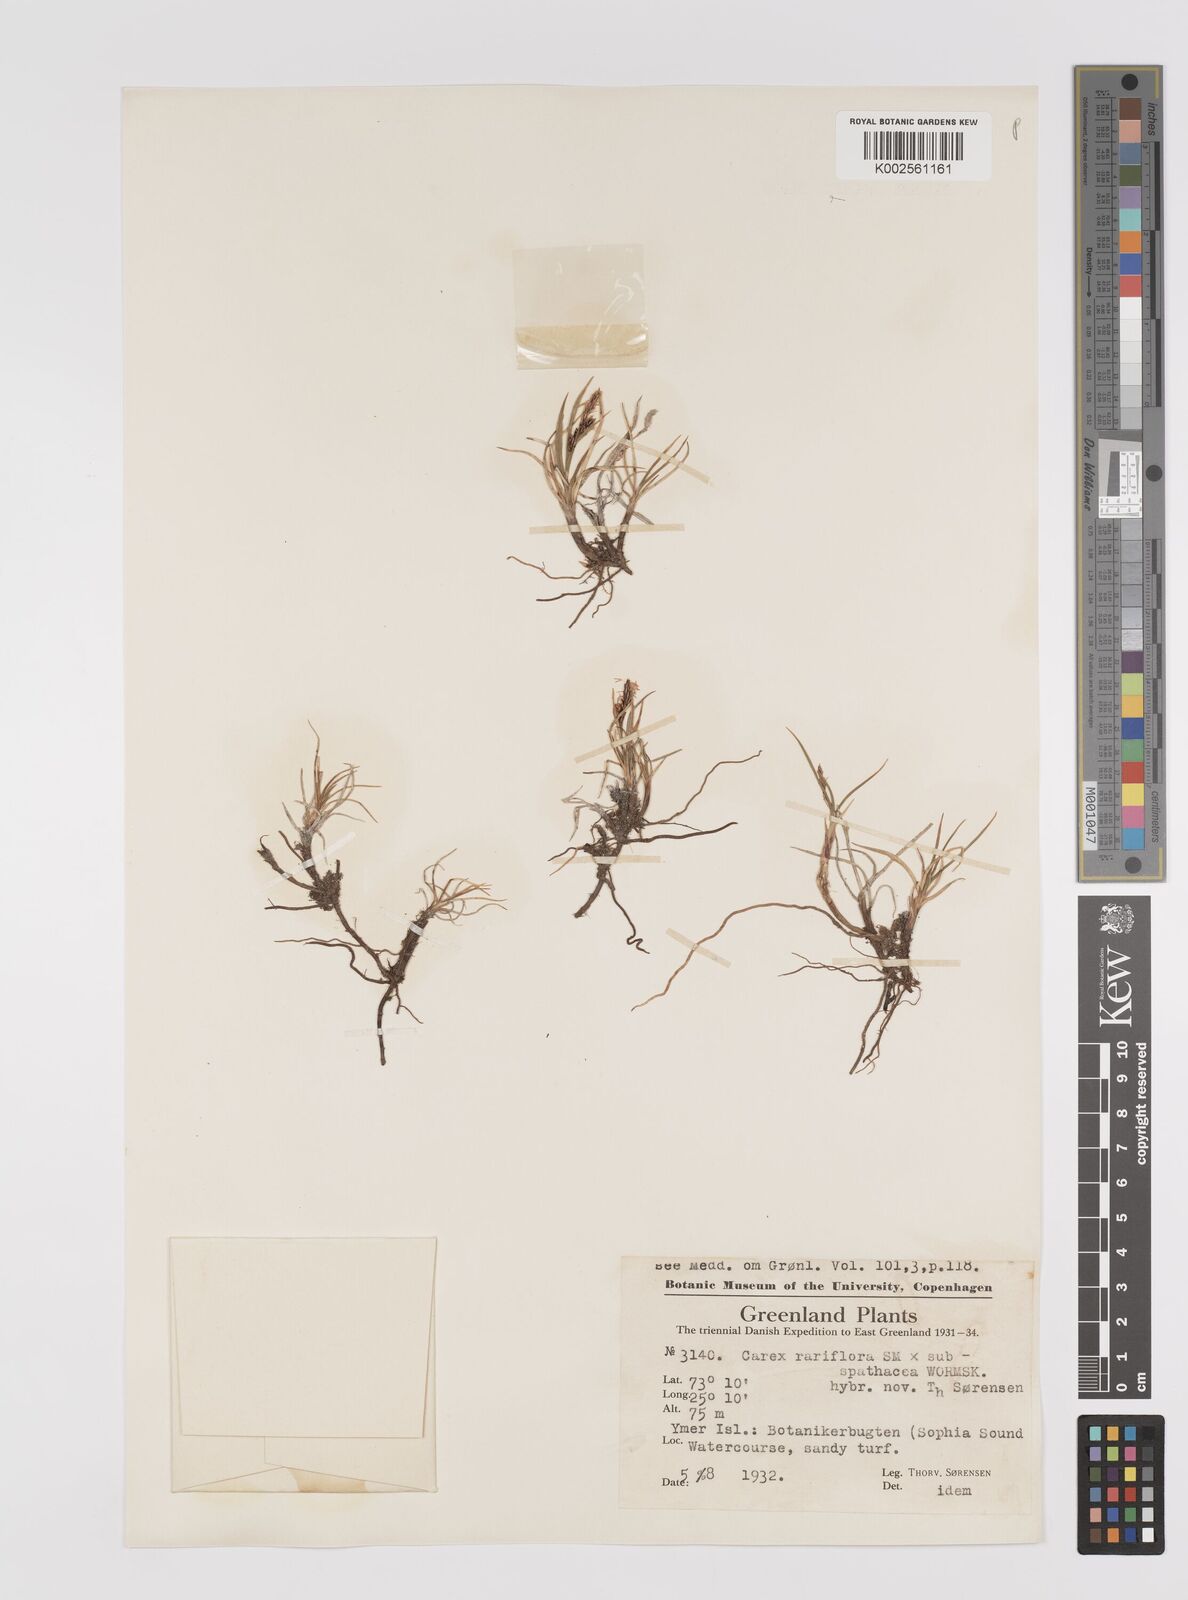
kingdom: Plantae
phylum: Tracheophyta
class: Liliopsida
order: Poales
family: Cyperaceae
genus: Carex
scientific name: Carex rariflora
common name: Loose-flowered alpine sedge
